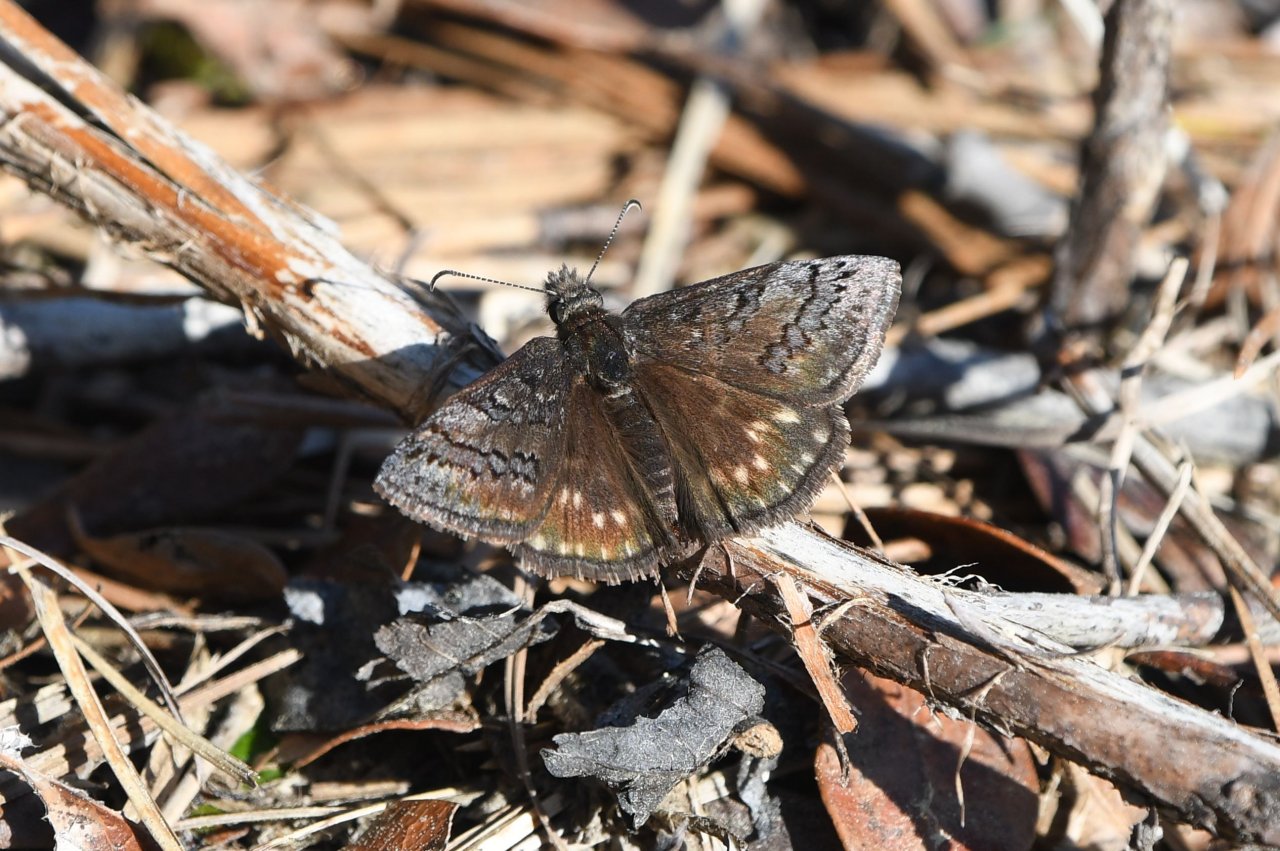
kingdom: Animalia
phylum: Arthropoda
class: Insecta
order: Lepidoptera
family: Hesperiidae
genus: Erynnis
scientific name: Erynnis brizo
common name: Sleepy Duskywing
